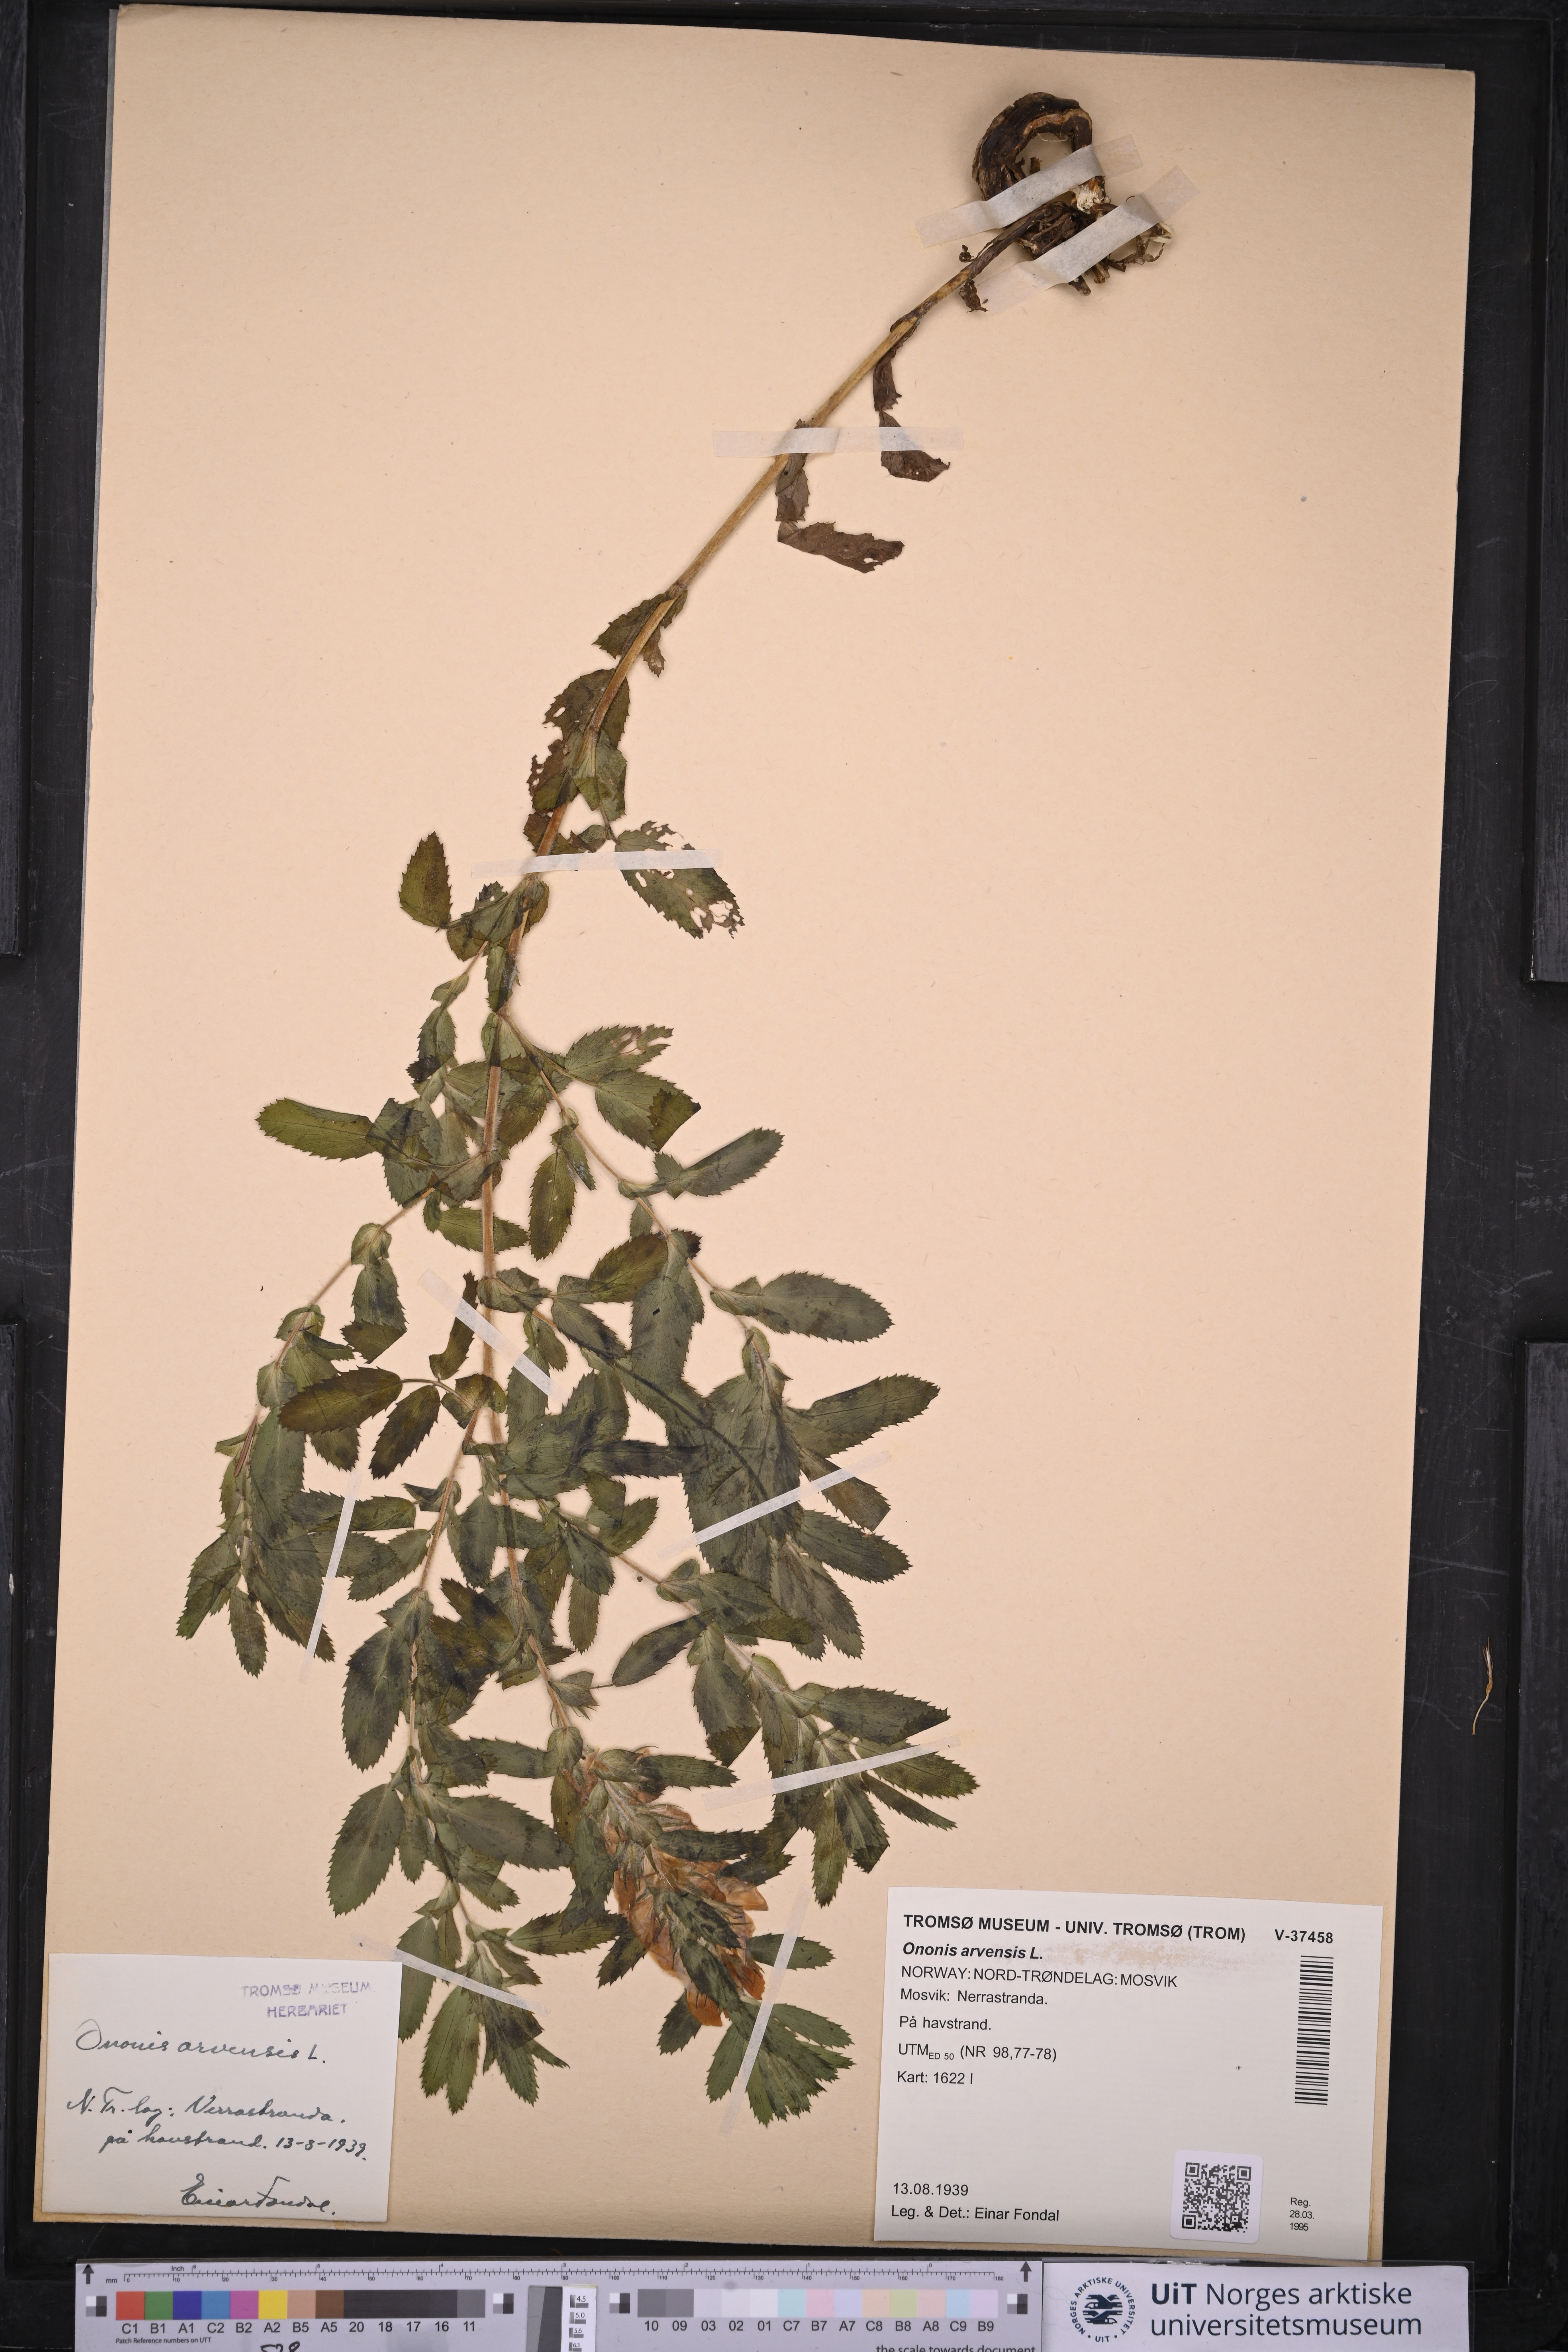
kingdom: Plantae
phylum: Tracheophyta
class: Magnoliopsida
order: Fabales
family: Fabaceae
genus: Ononis
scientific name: Ononis arvensis
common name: Field restharrow
